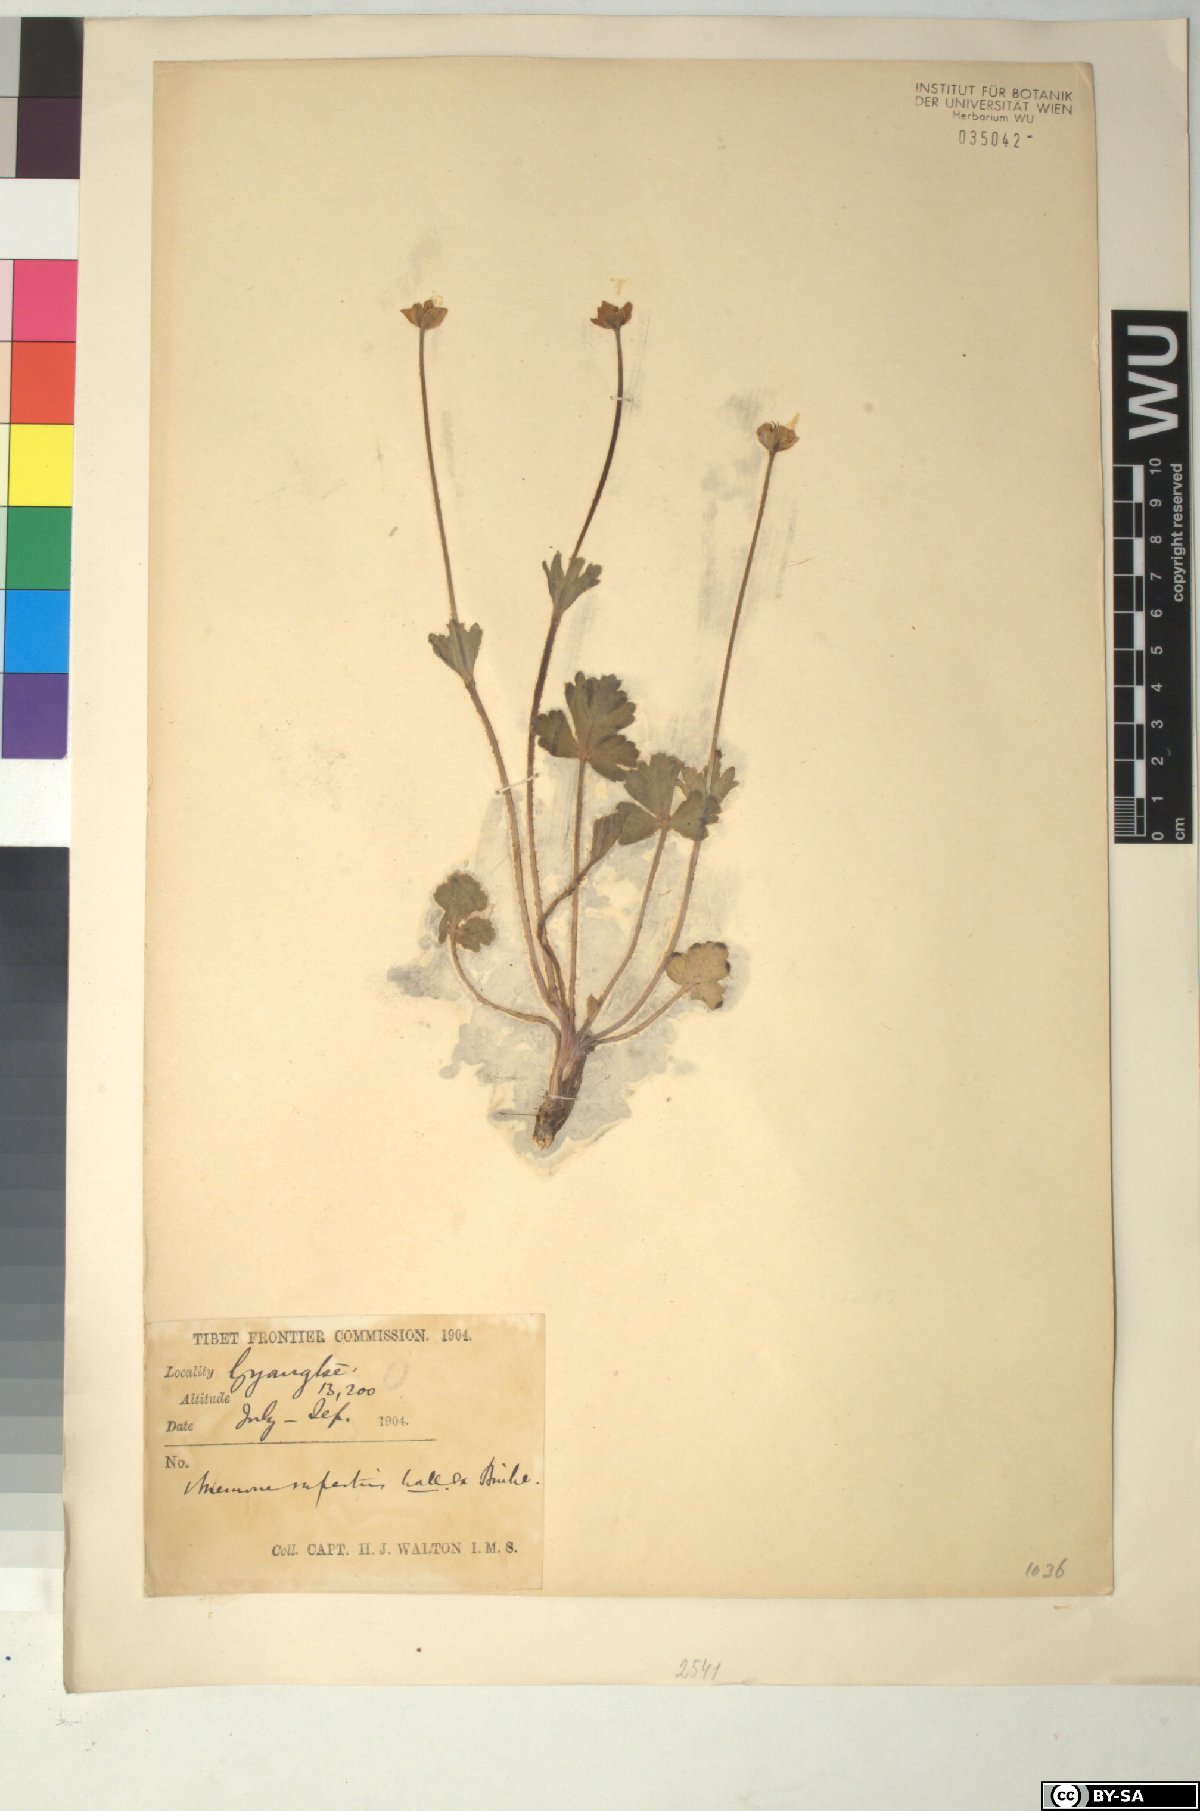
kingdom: Plantae
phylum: Tracheophyta
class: Magnoliopsida
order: Ranunculales
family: Ranunculaceae
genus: Anemonastrum
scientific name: Anemonastrum geum
